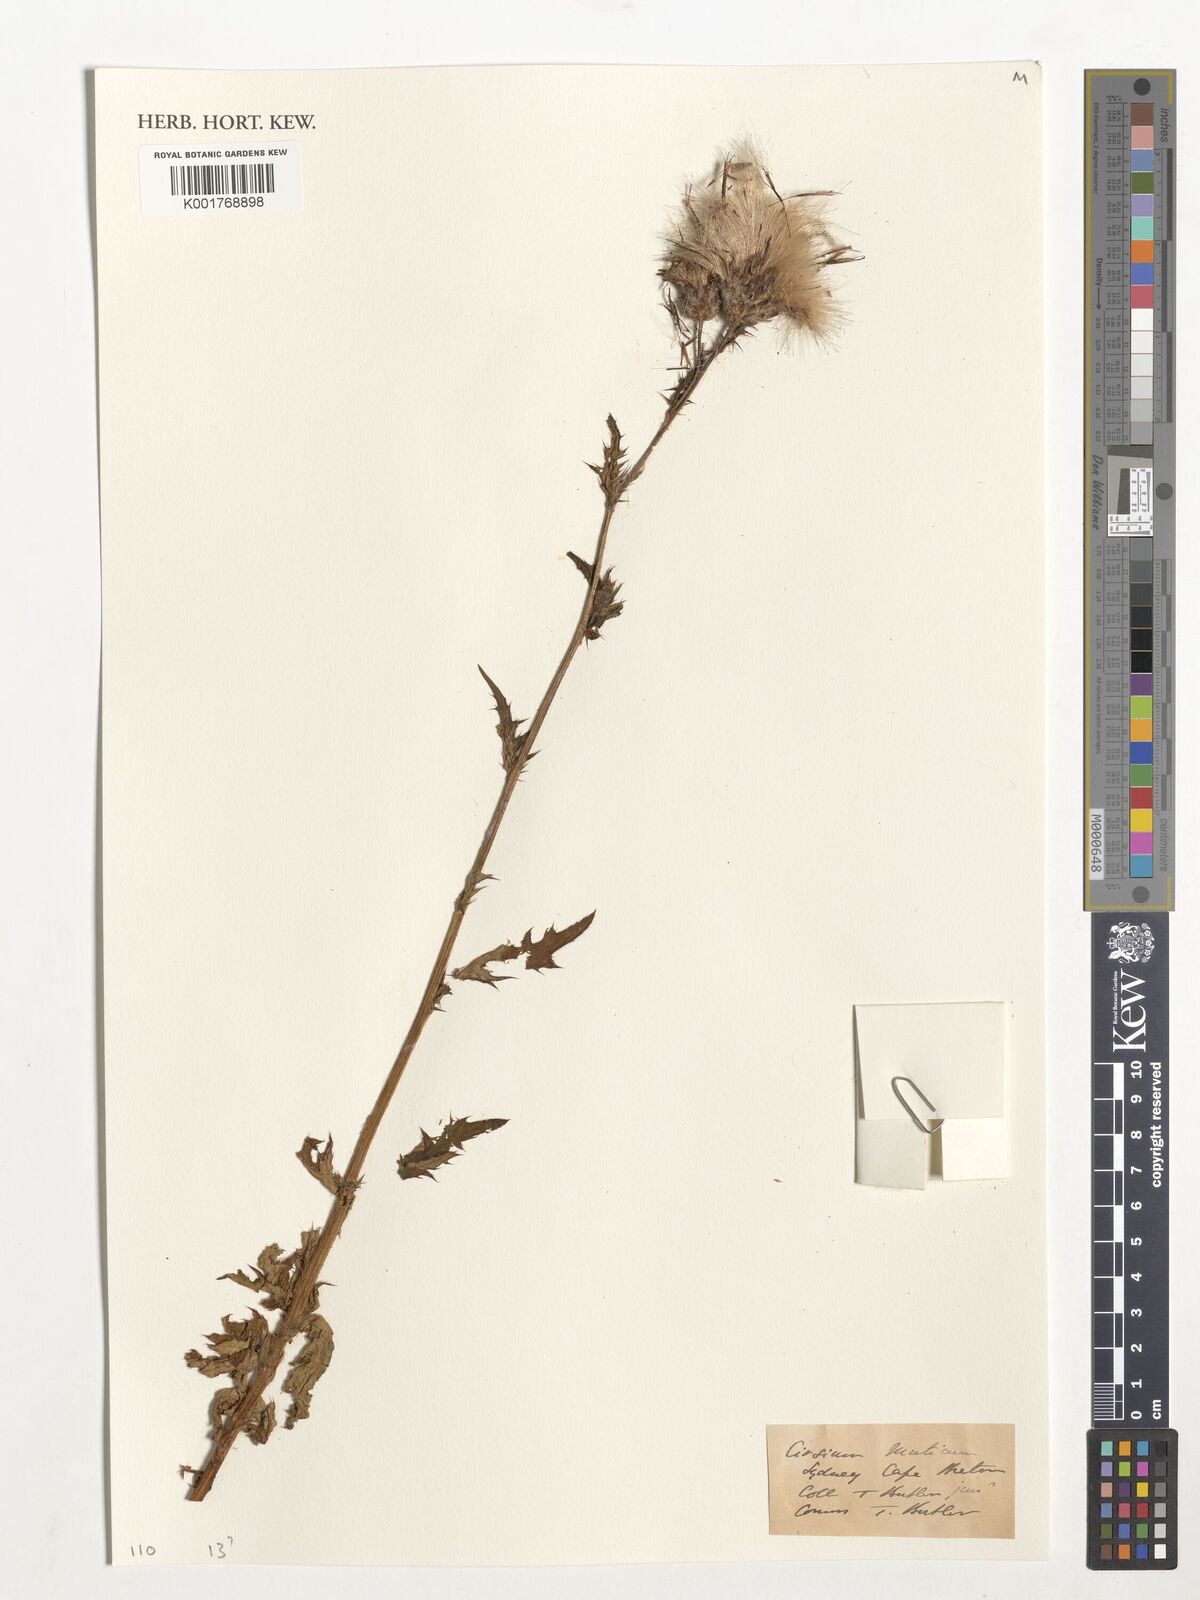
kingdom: Plantae
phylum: Tracheophyta
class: Magnoliopsida
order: Asterales
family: Asteraceae
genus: Cirsium
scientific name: Cirsium muticum
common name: Dunce-nettle
